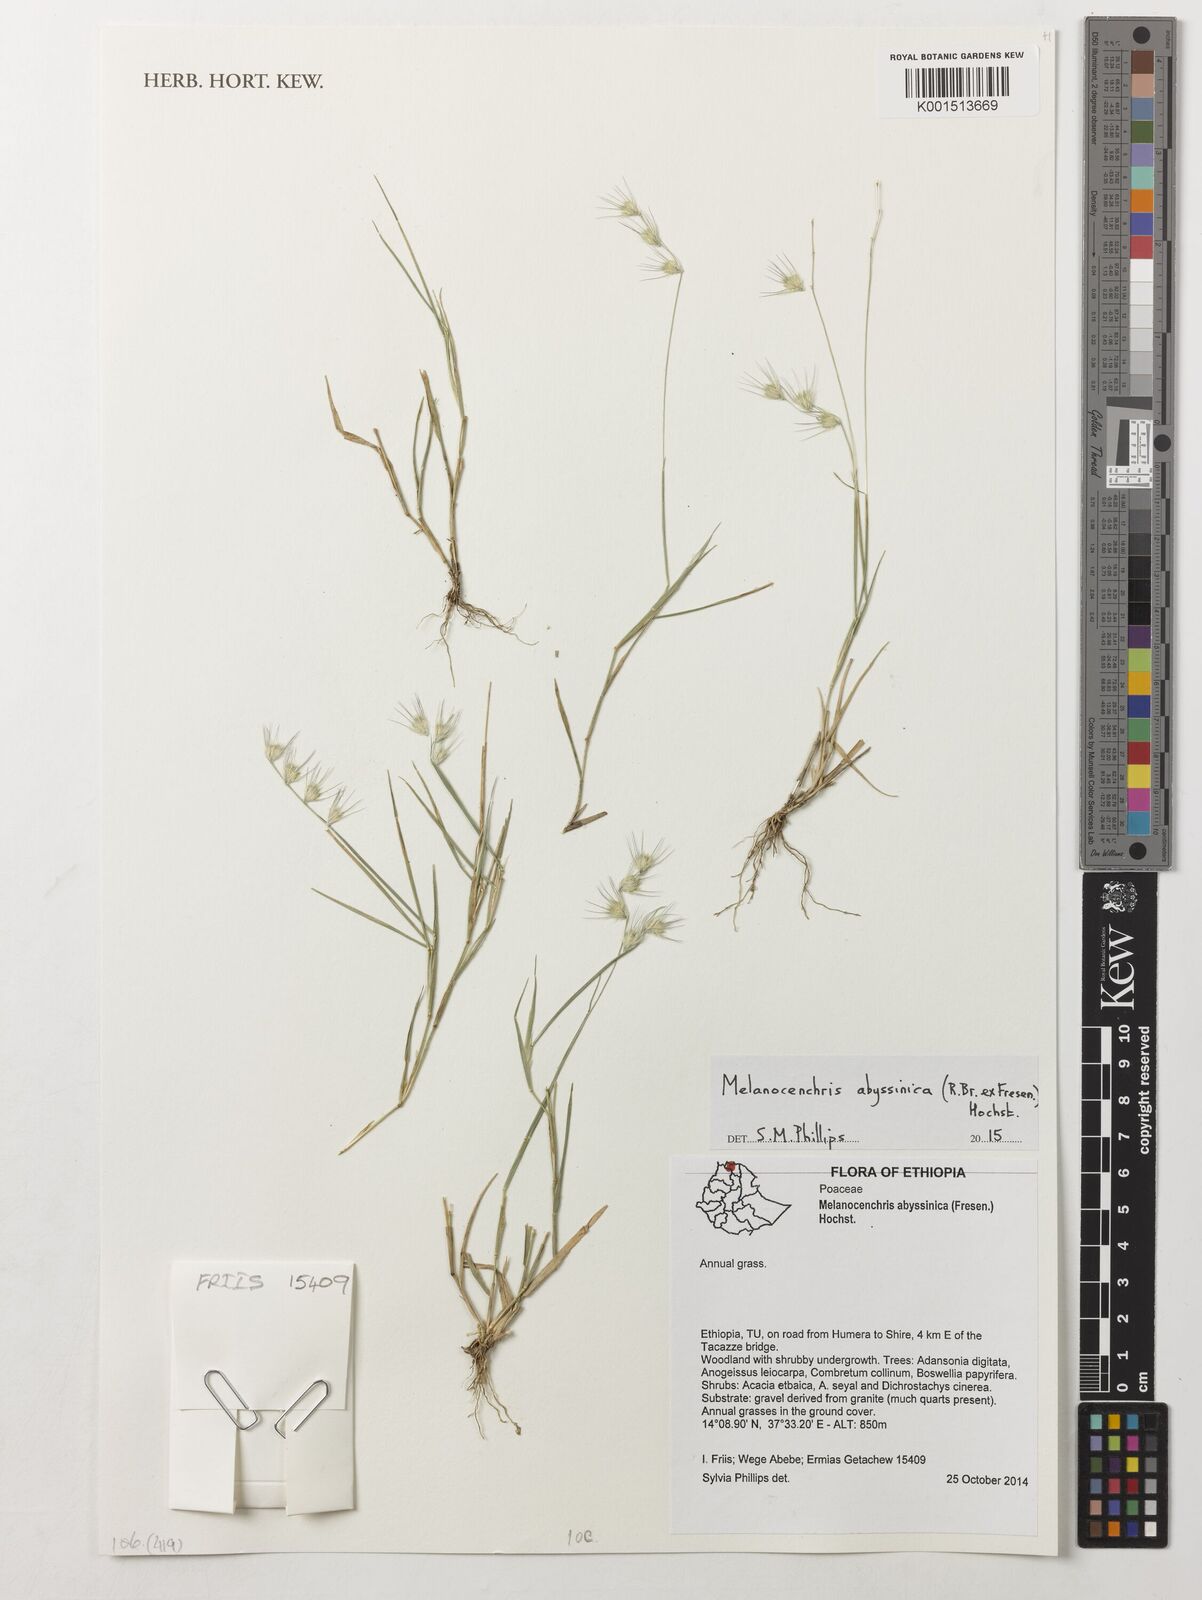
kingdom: Plantae
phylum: Tracheophyta
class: Liliopsida
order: Poales
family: Poaceae
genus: Melanocenchris
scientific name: Melanocenchris abyssinica
